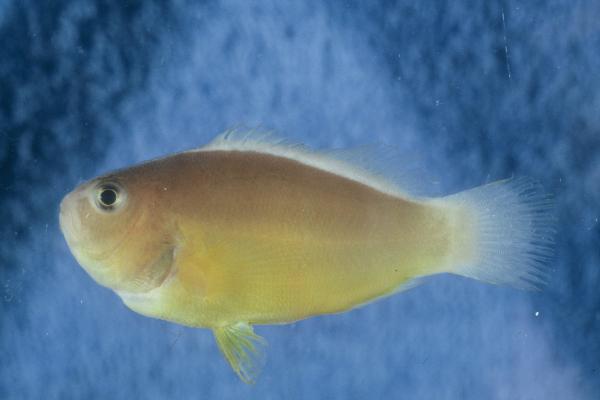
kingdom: Animalia
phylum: Chordata
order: Perciformes
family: Pomacentridae
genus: Amphiprion
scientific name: Amphiprion akallopisos
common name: Skunk clownfish
